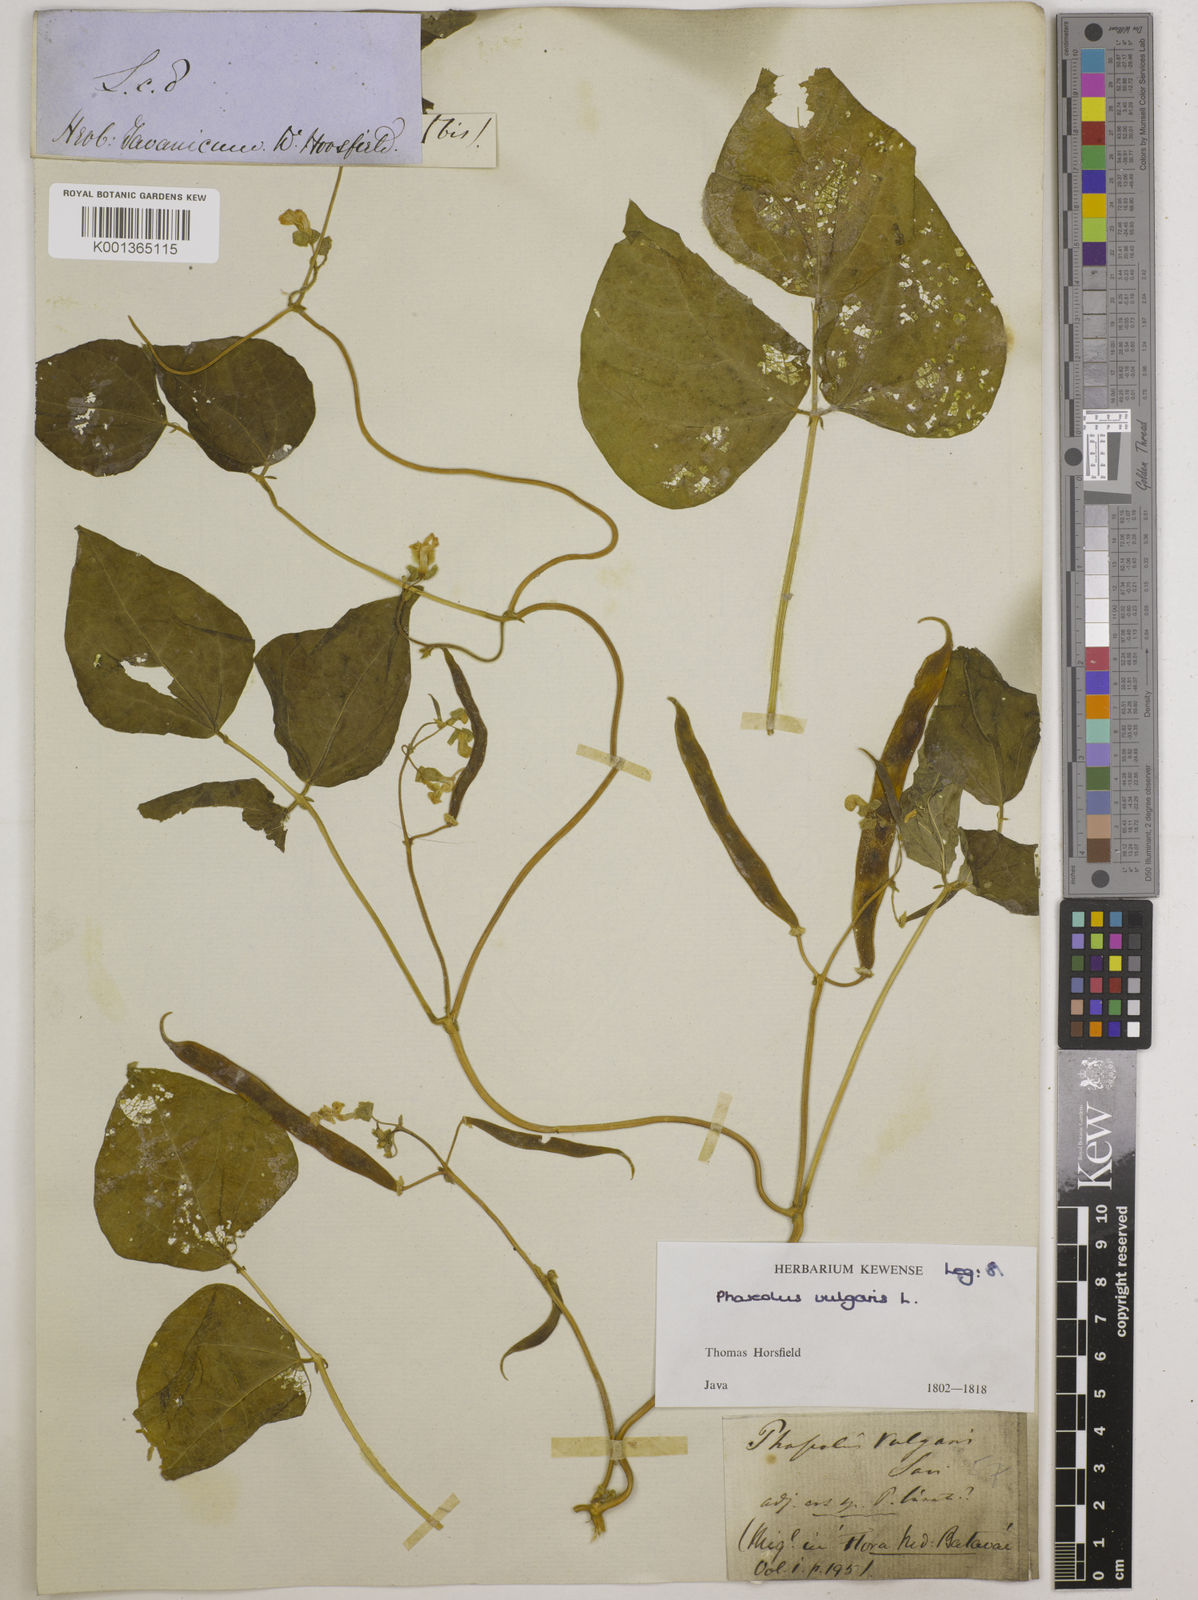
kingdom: Plantae
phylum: Tracheophyta
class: Magnoliopsida
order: Fabales
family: Fabaceae
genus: Phaseolus
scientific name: Phaseolus vulgaris
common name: Bean
